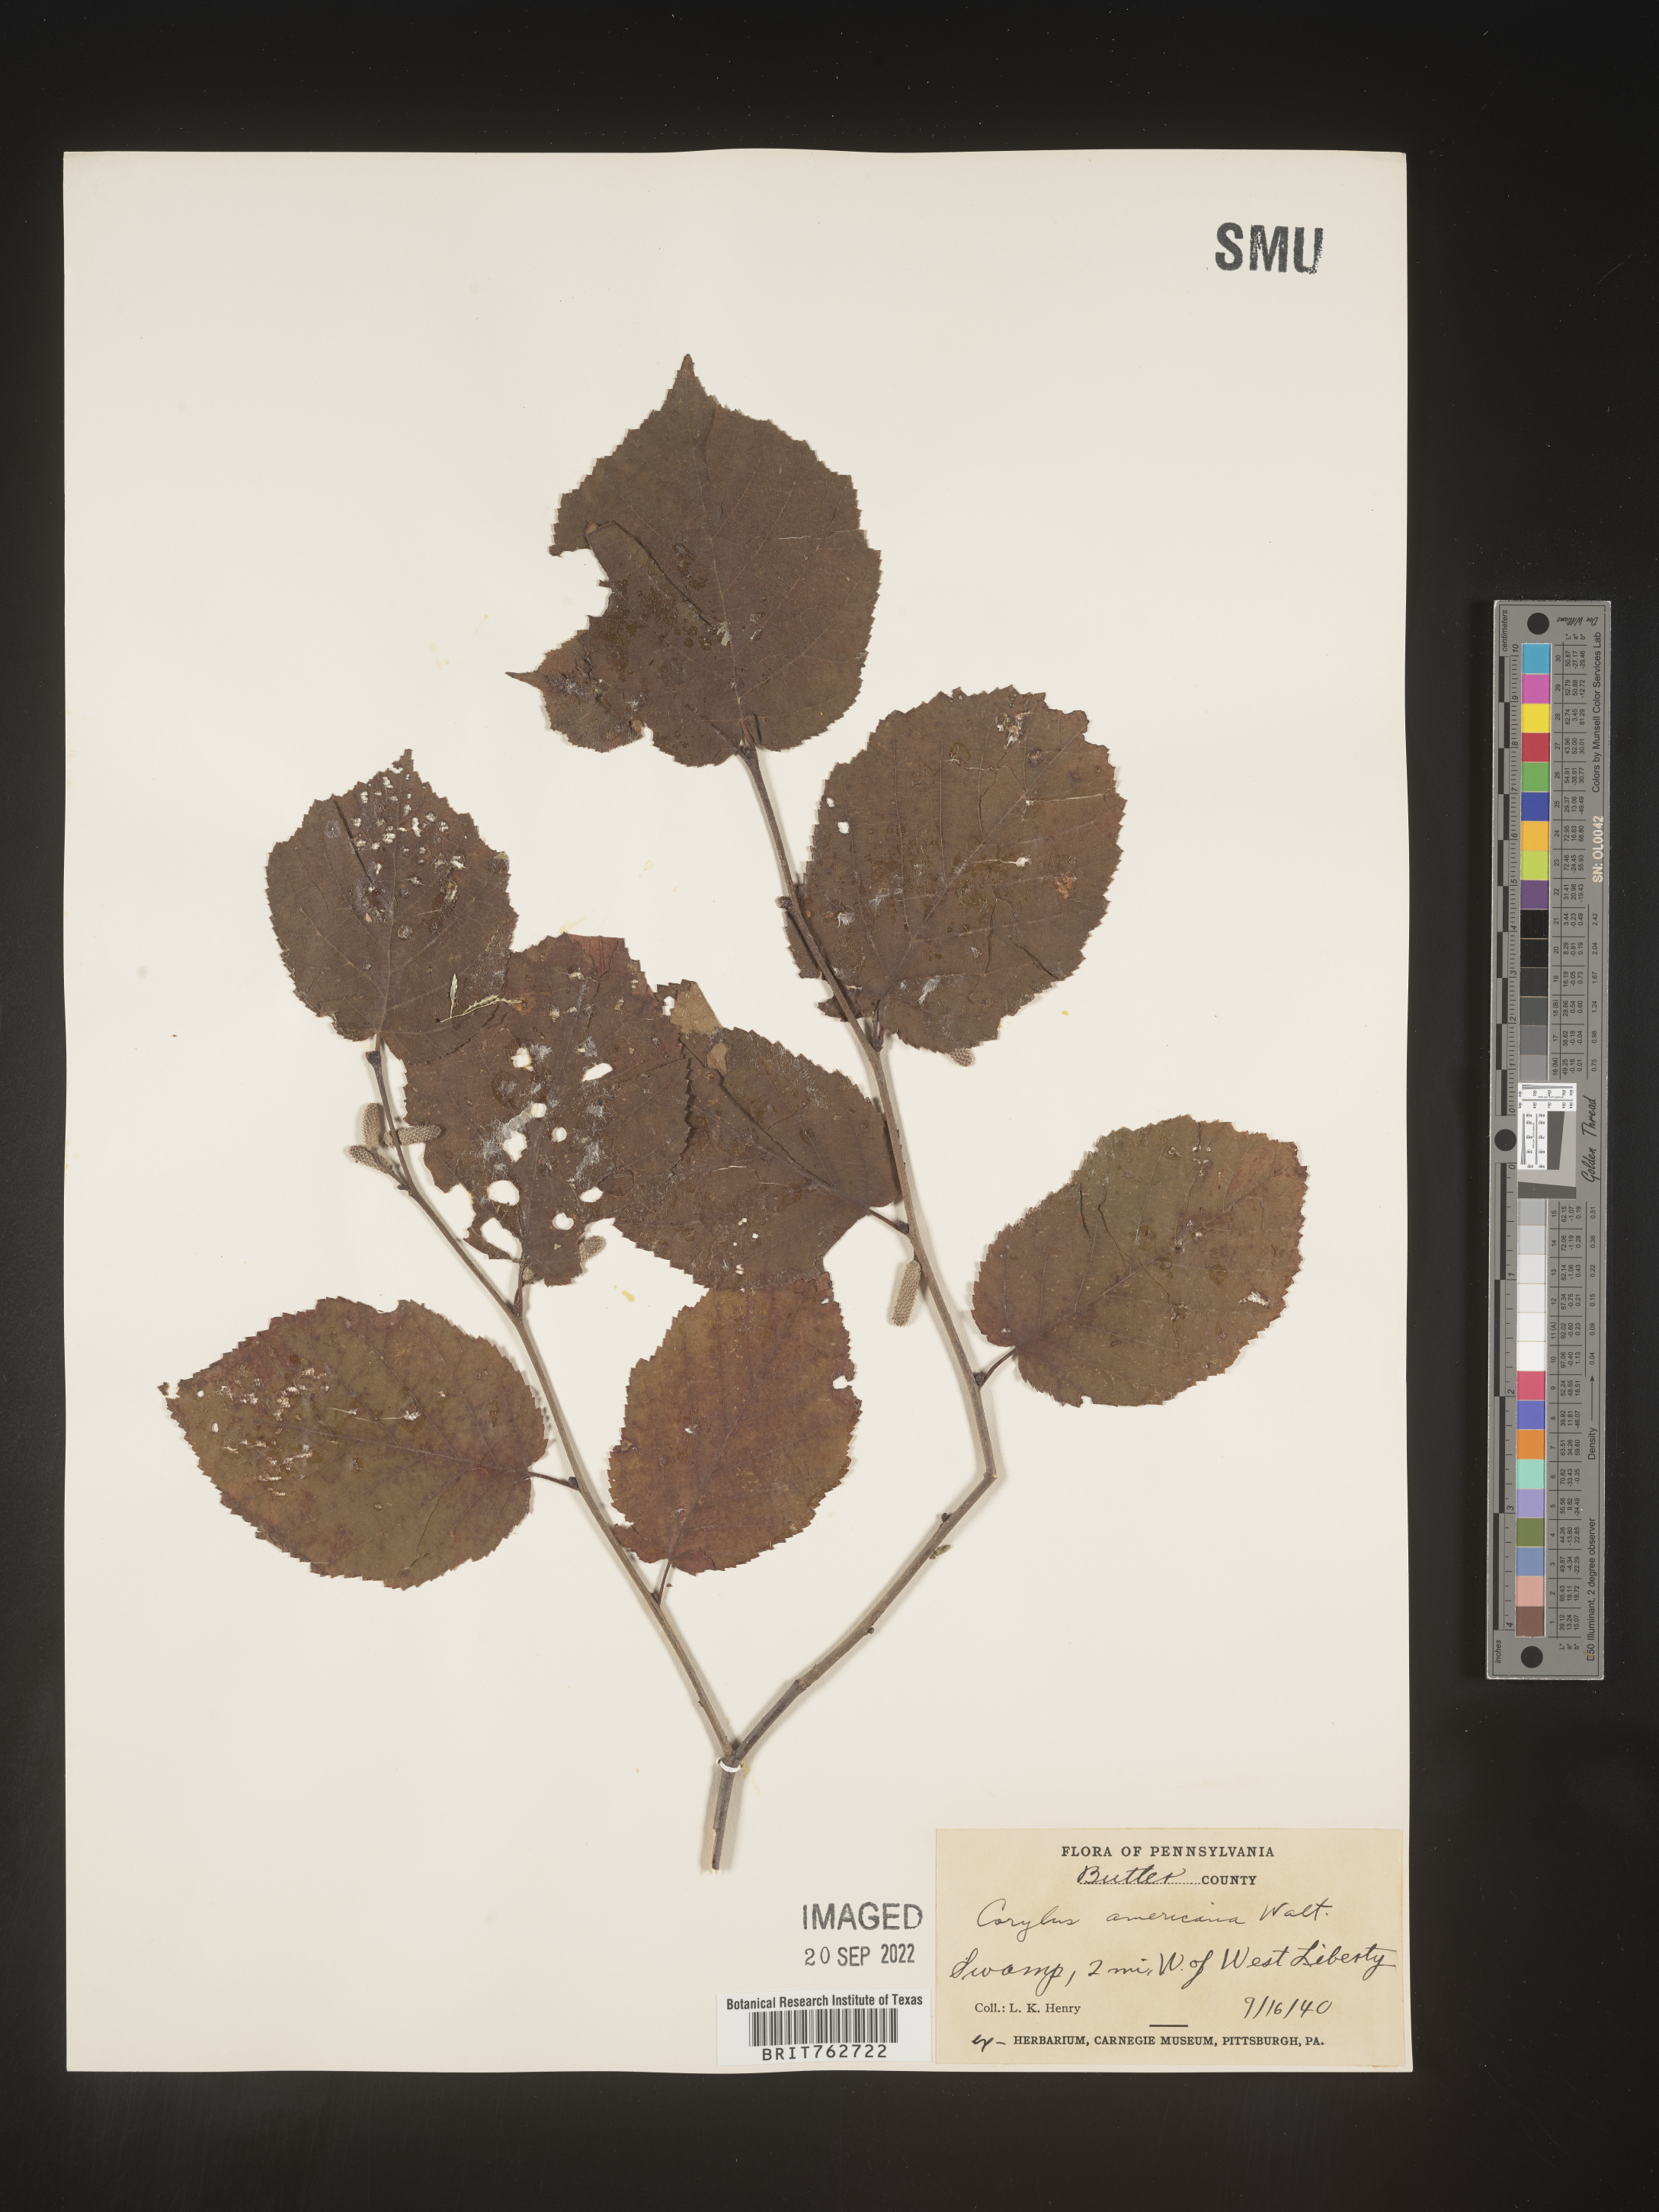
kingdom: Plantae
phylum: Tracheophyta
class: Magnoliopsida
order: Fagales
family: Betulaceae
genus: Corylus
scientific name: Corylus americana
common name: American hazel
